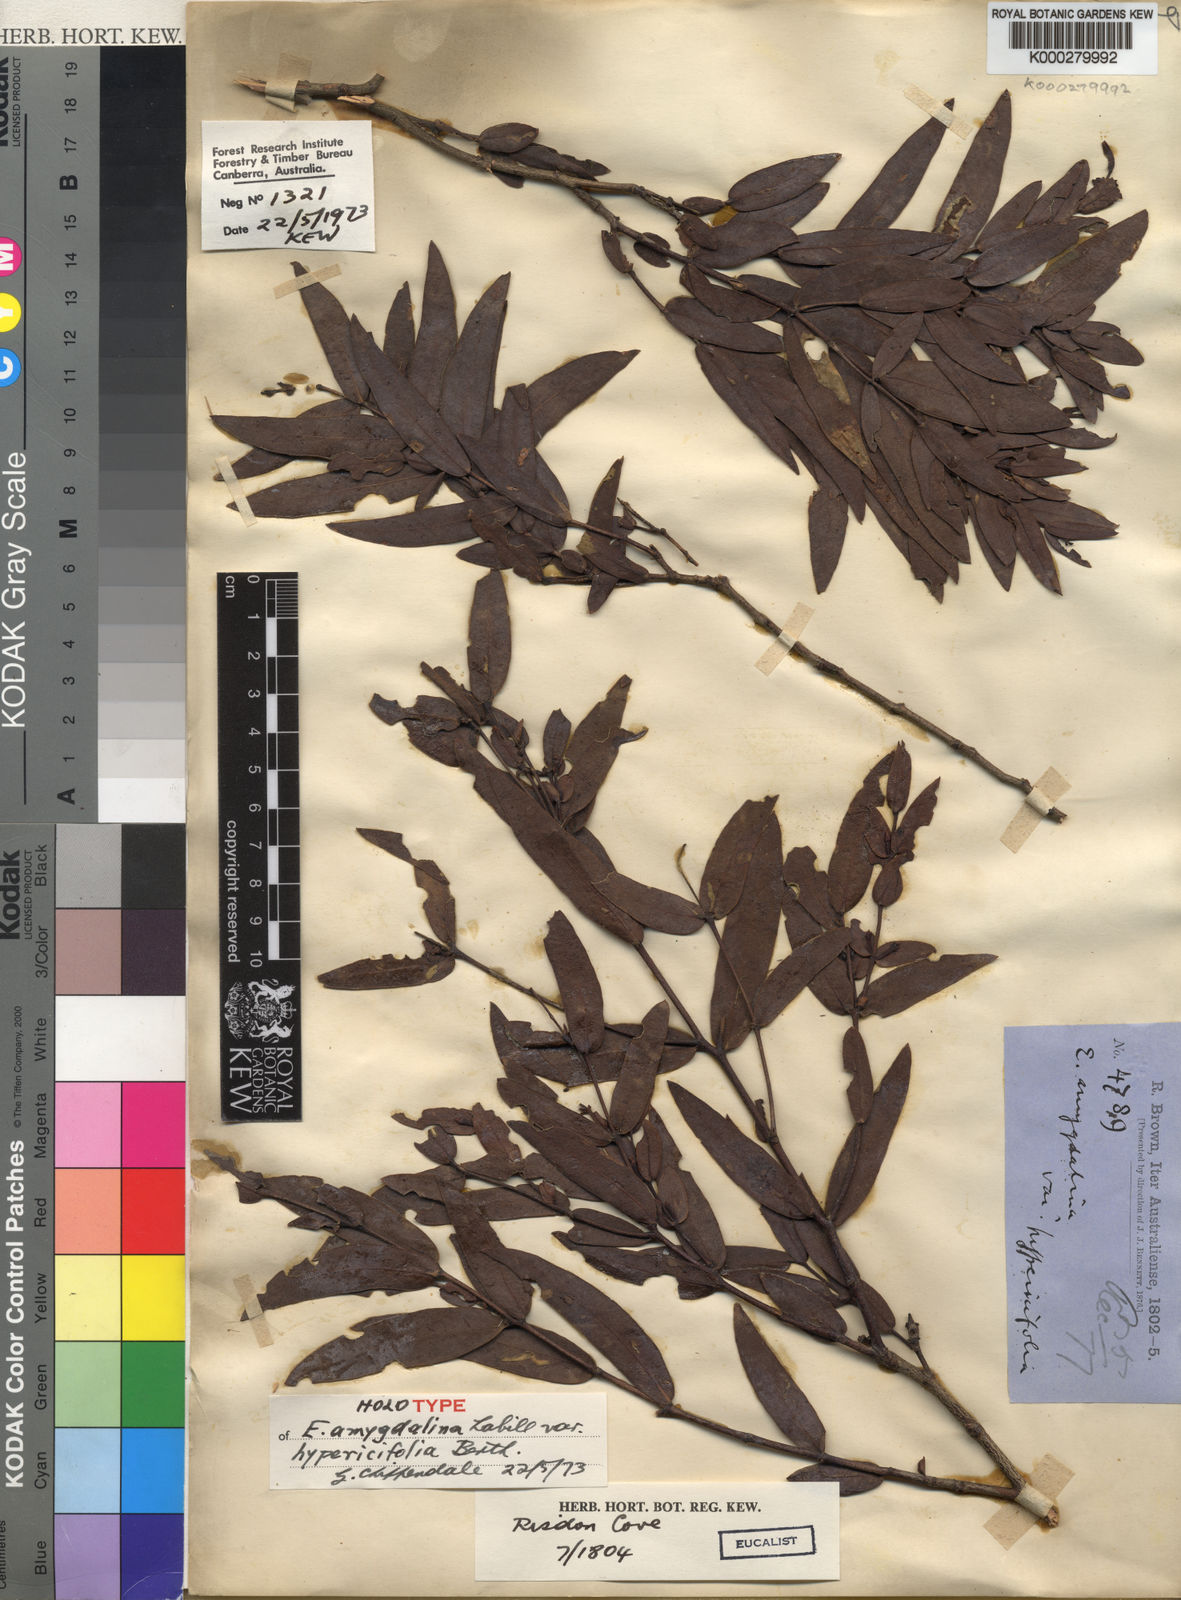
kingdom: Plantae
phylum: Tracheophyta
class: Magnoliopsida
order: Myrtales
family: Myrtaceae
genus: Eucalyptus
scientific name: Eucalyptus amygdalina
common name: Black peppermint
